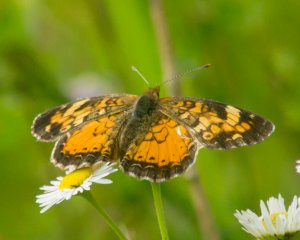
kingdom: Animalia
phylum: Arthropoda
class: Insecta
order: Lepidoptera
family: Nymphalidae
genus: Phyciodes
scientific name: Phyciodes tharos
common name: Northern Crescent
